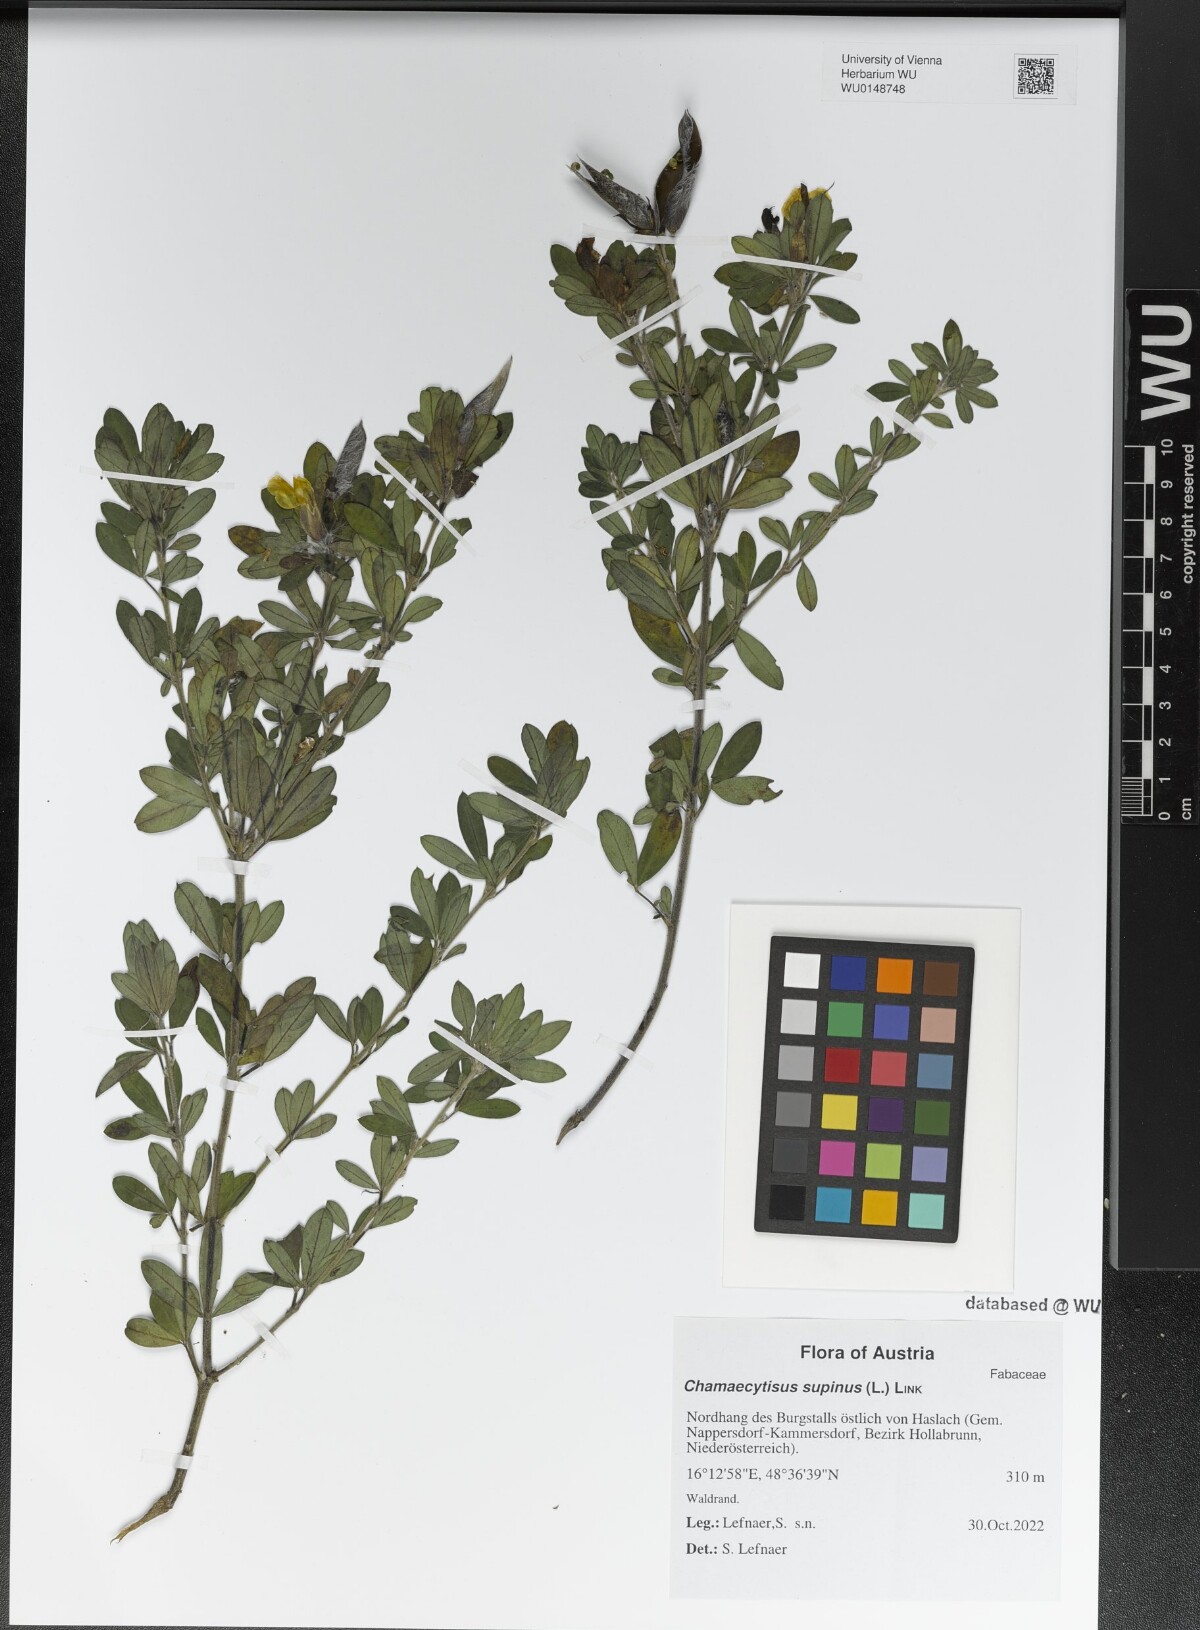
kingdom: Plantae
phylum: Tracheophyta
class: Magnoliopsida
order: Fabales
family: Fabaceae
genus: Chamaecytisus
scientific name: Chamaecytisus supinus
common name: Clustered broom
